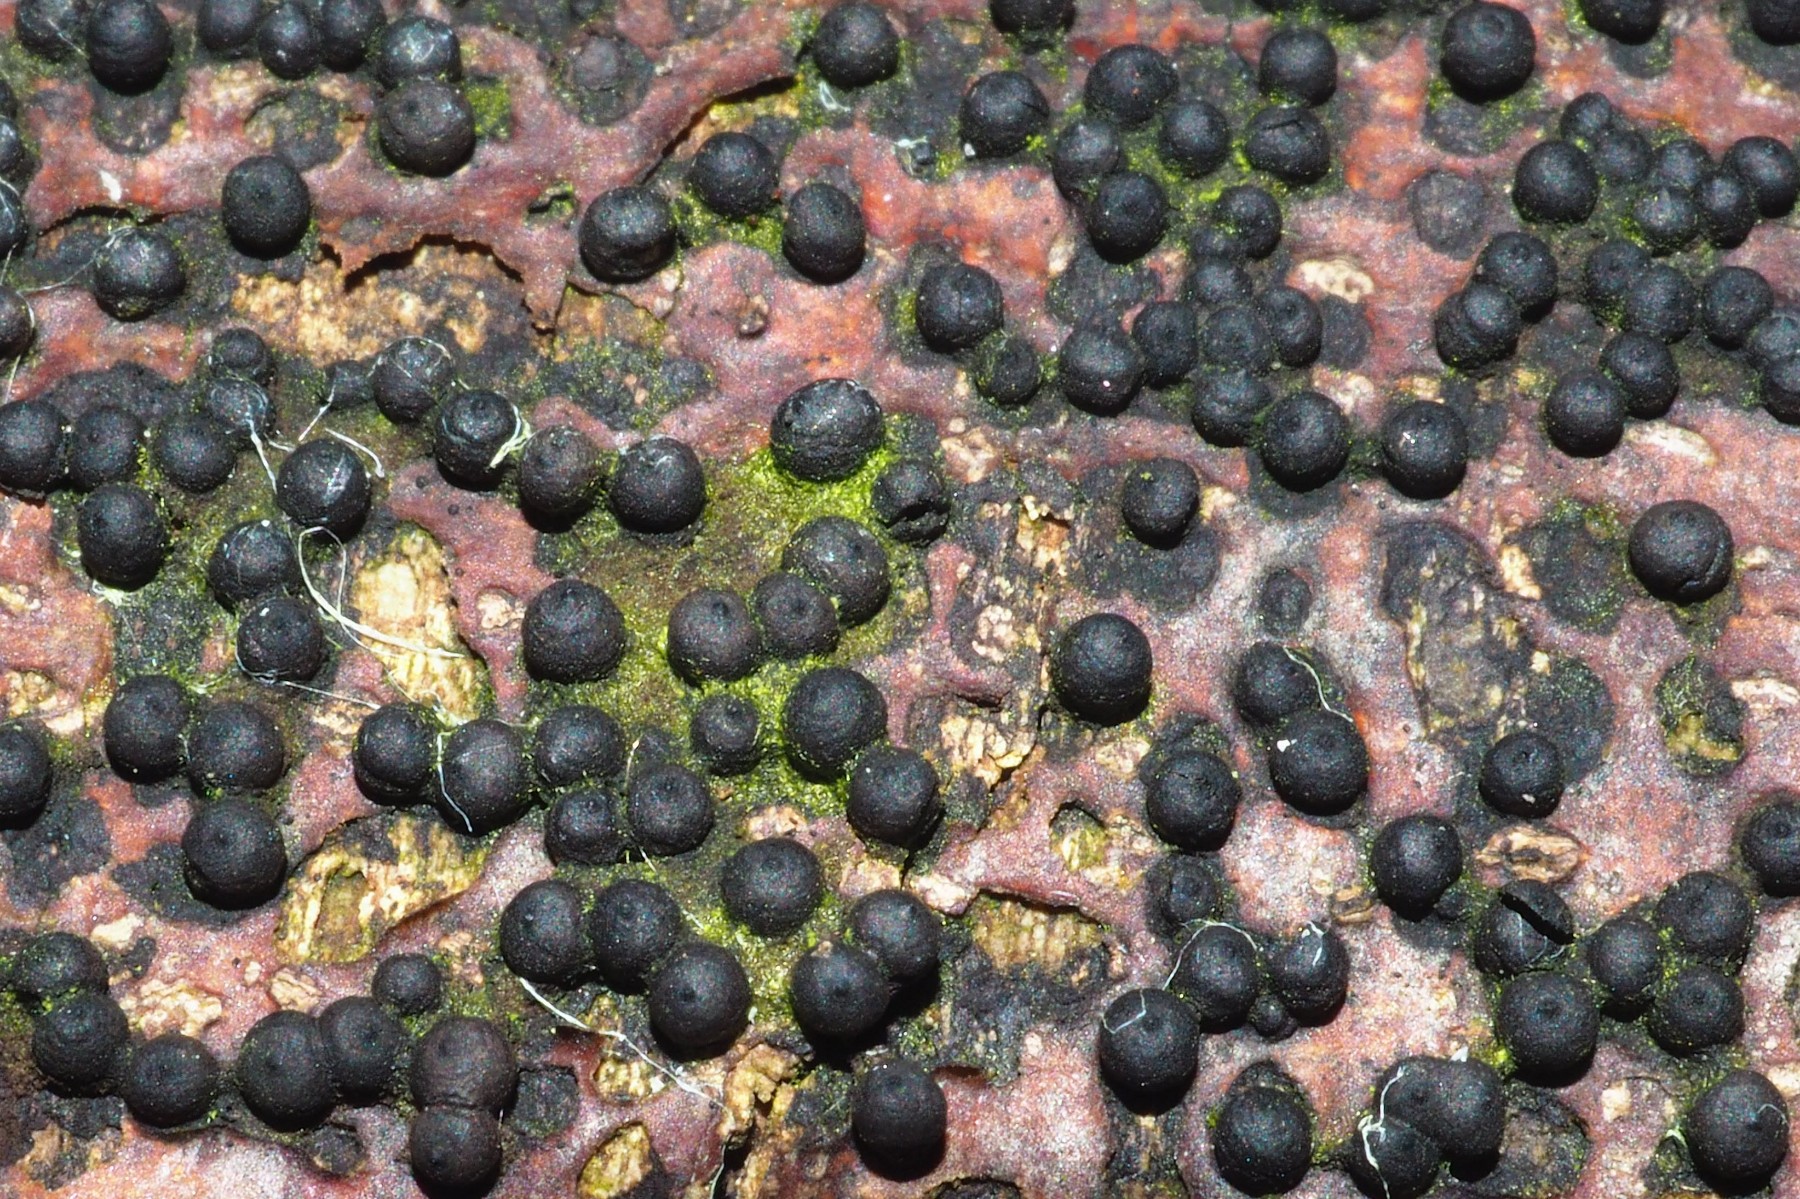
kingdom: Fungi
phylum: Ascomycota
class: Sordariomycetes
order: Xylariales
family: Xylariaceae
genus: Rosellinia
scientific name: Rosellinia
